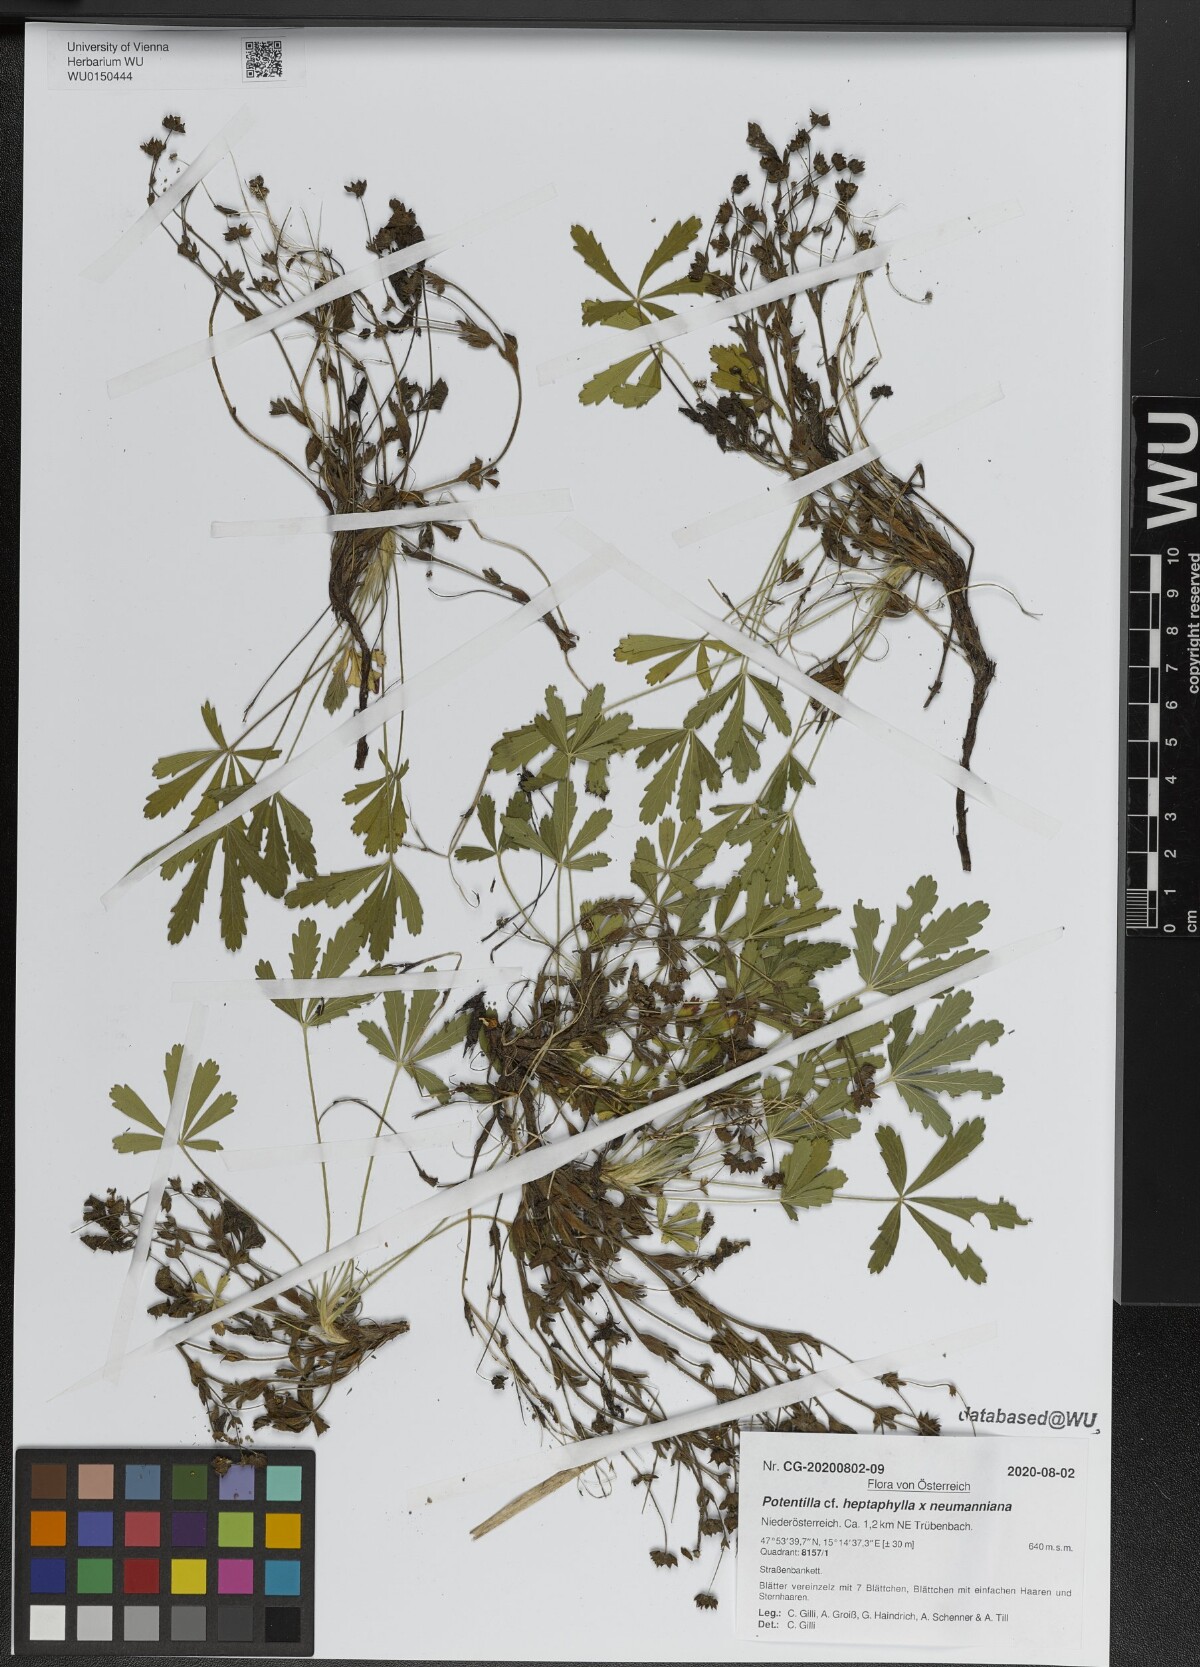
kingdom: Plantae
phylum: Tracheophyta
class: Magnoliopsida
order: Rosales
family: Rosaceae
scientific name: Rosaceae
